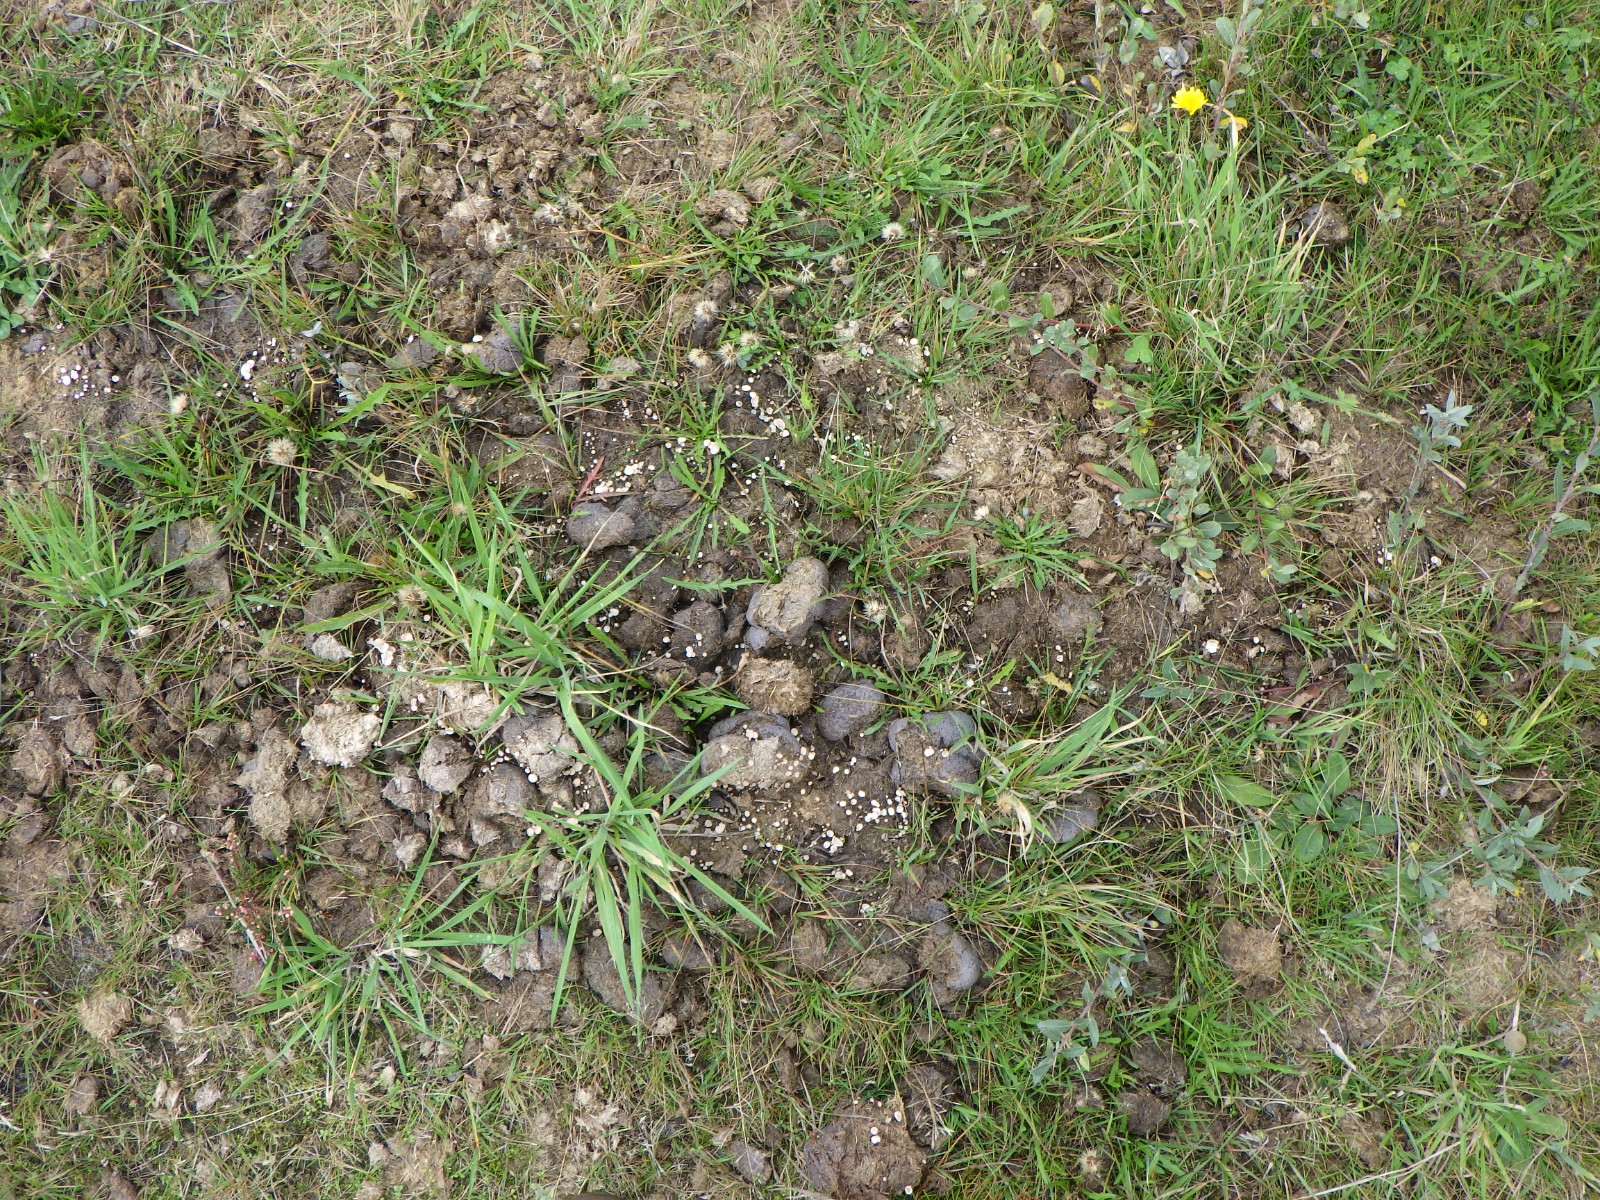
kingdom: Fungi
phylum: Ascomycota
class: Sordariomycetes
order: Xylariales
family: Xylariaceae
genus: Poronia
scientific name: Poronia punctata
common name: stor priksvamp
